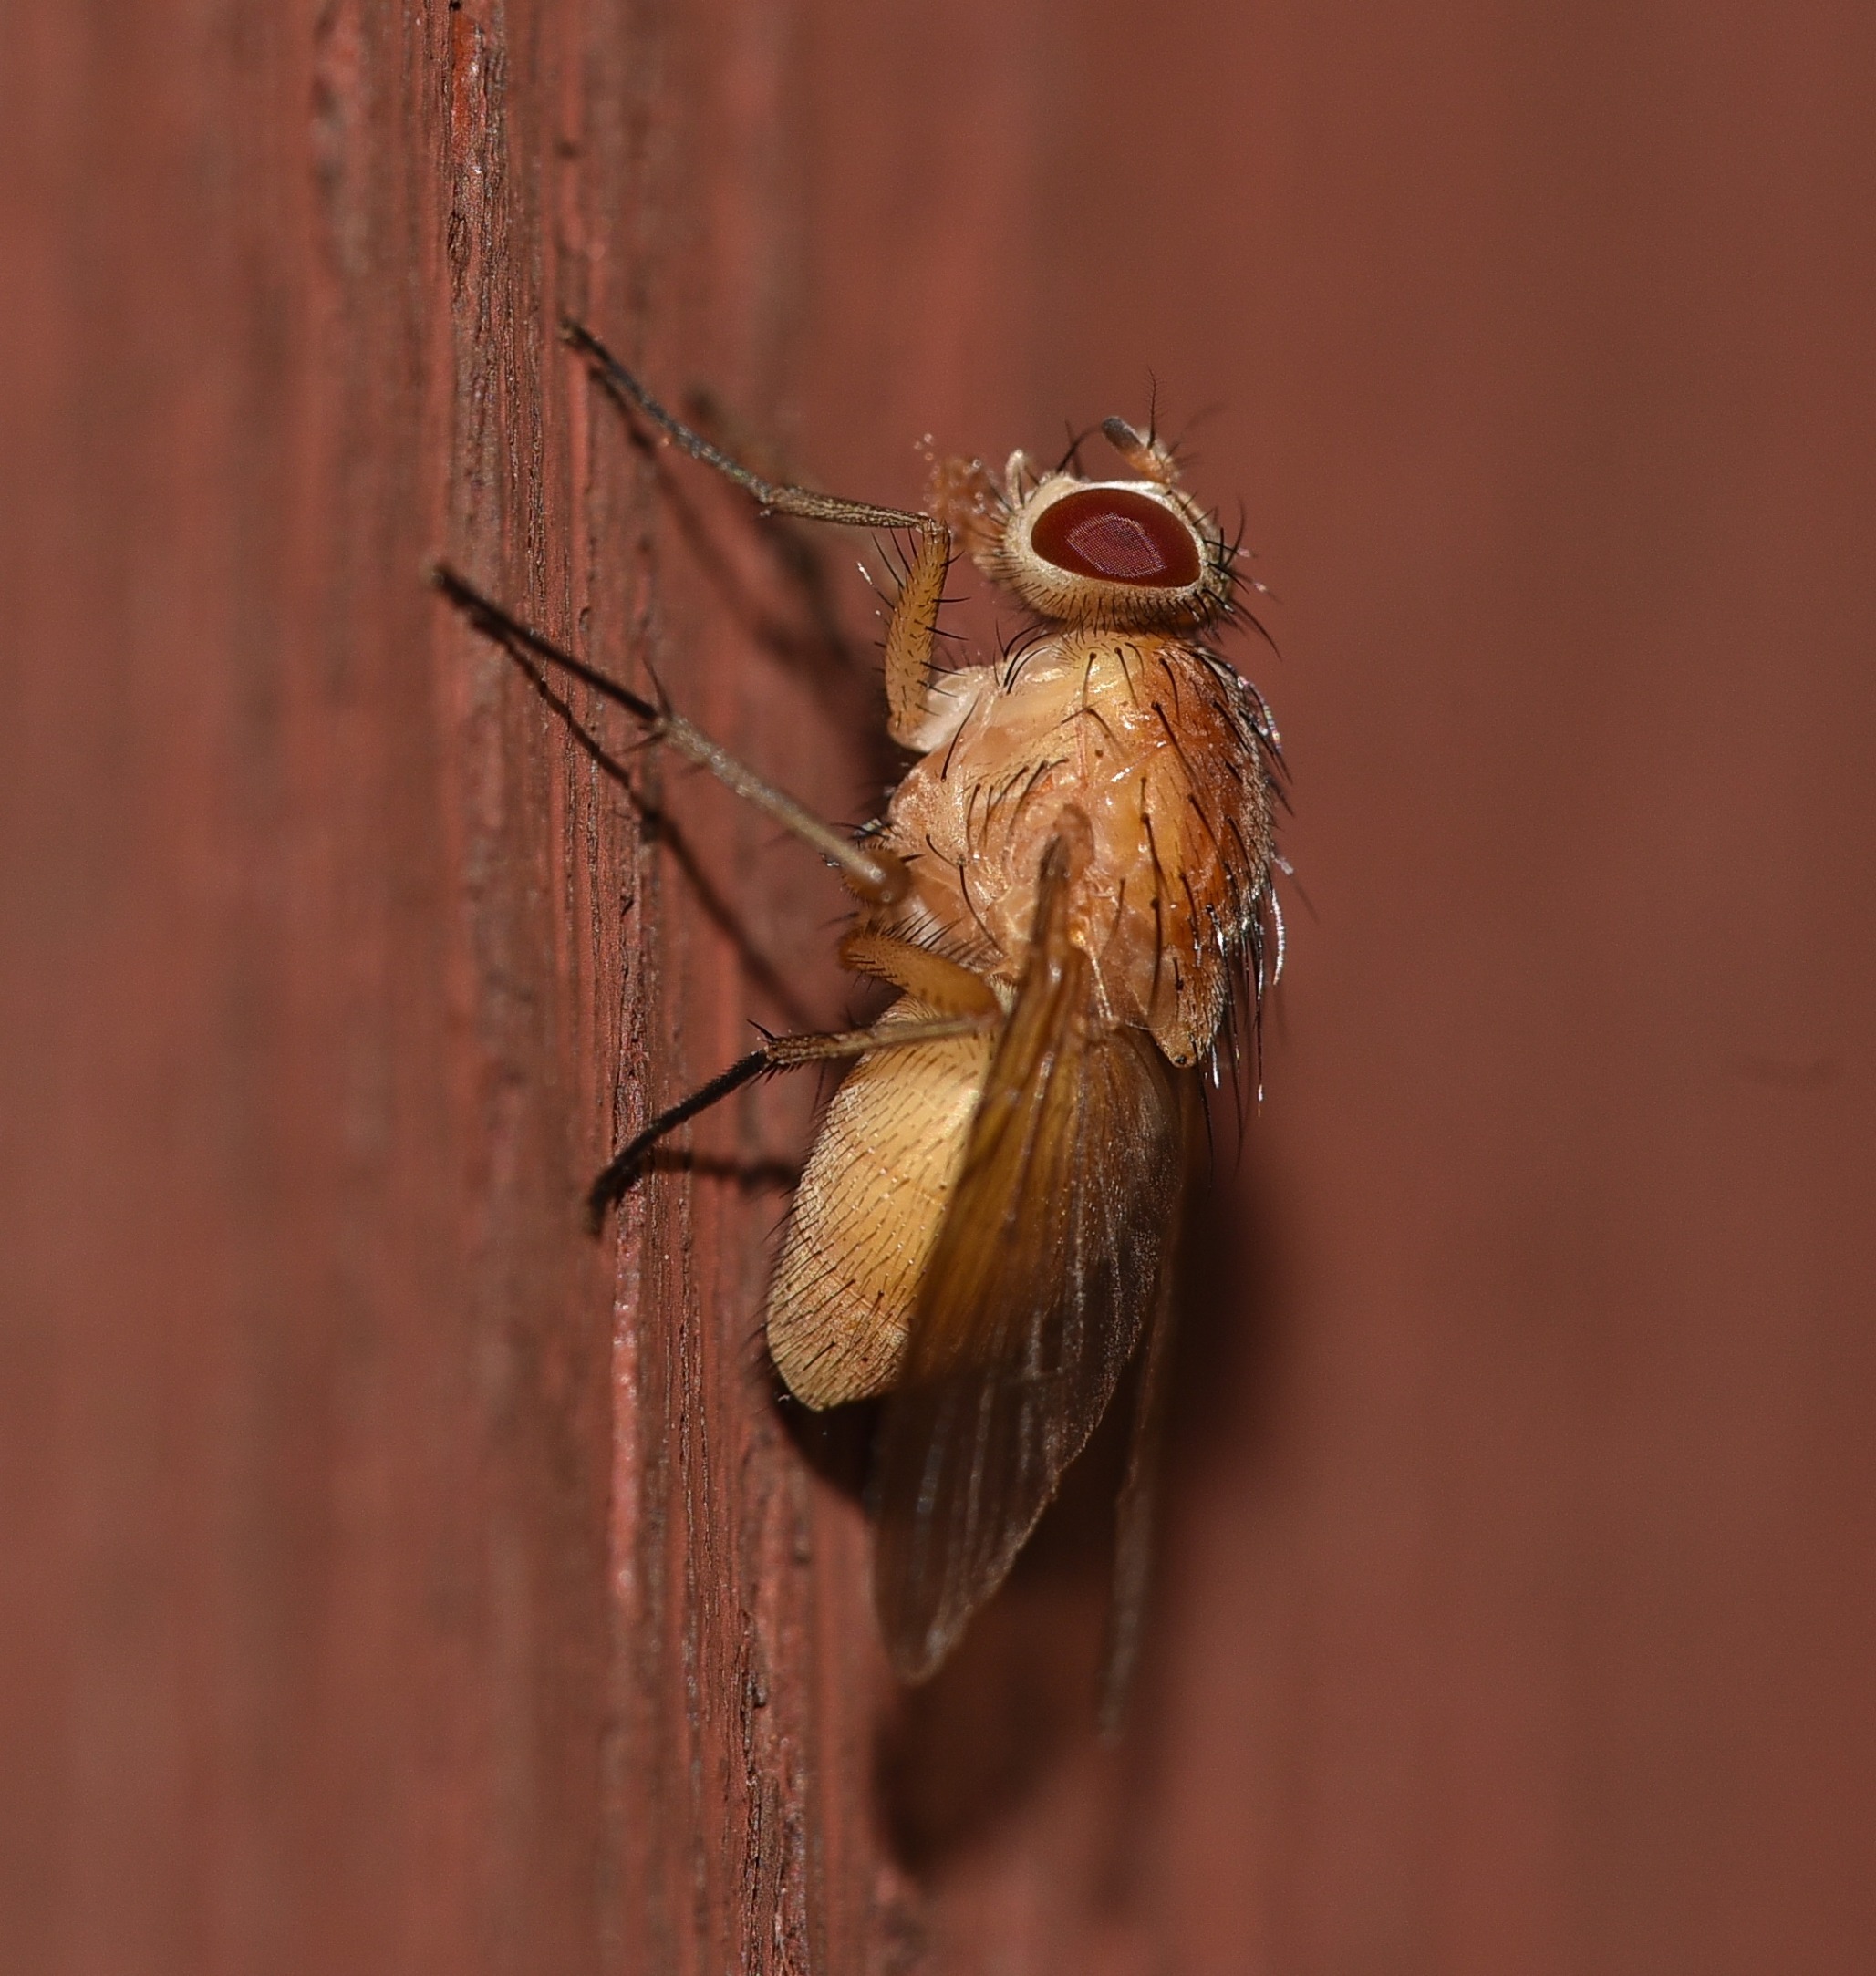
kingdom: Animalia
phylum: Arthropoda
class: Insecta
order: Diptera
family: Muscidae
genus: Phaonia
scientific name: Phaonia pallida
